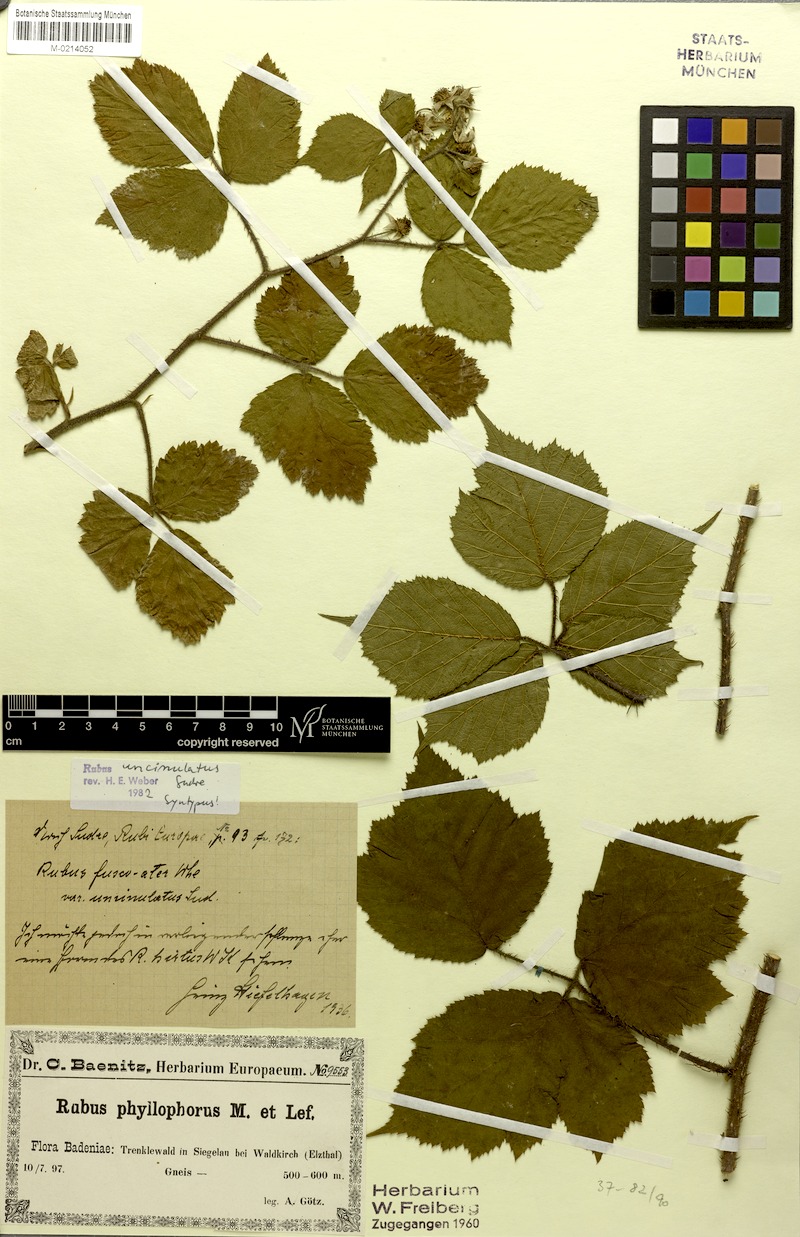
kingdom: Plantae
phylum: Tracheophyta
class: Magnoliopsida
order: Rosales
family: Rosaceae
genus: Rubus
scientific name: Rubus uncinulatus
